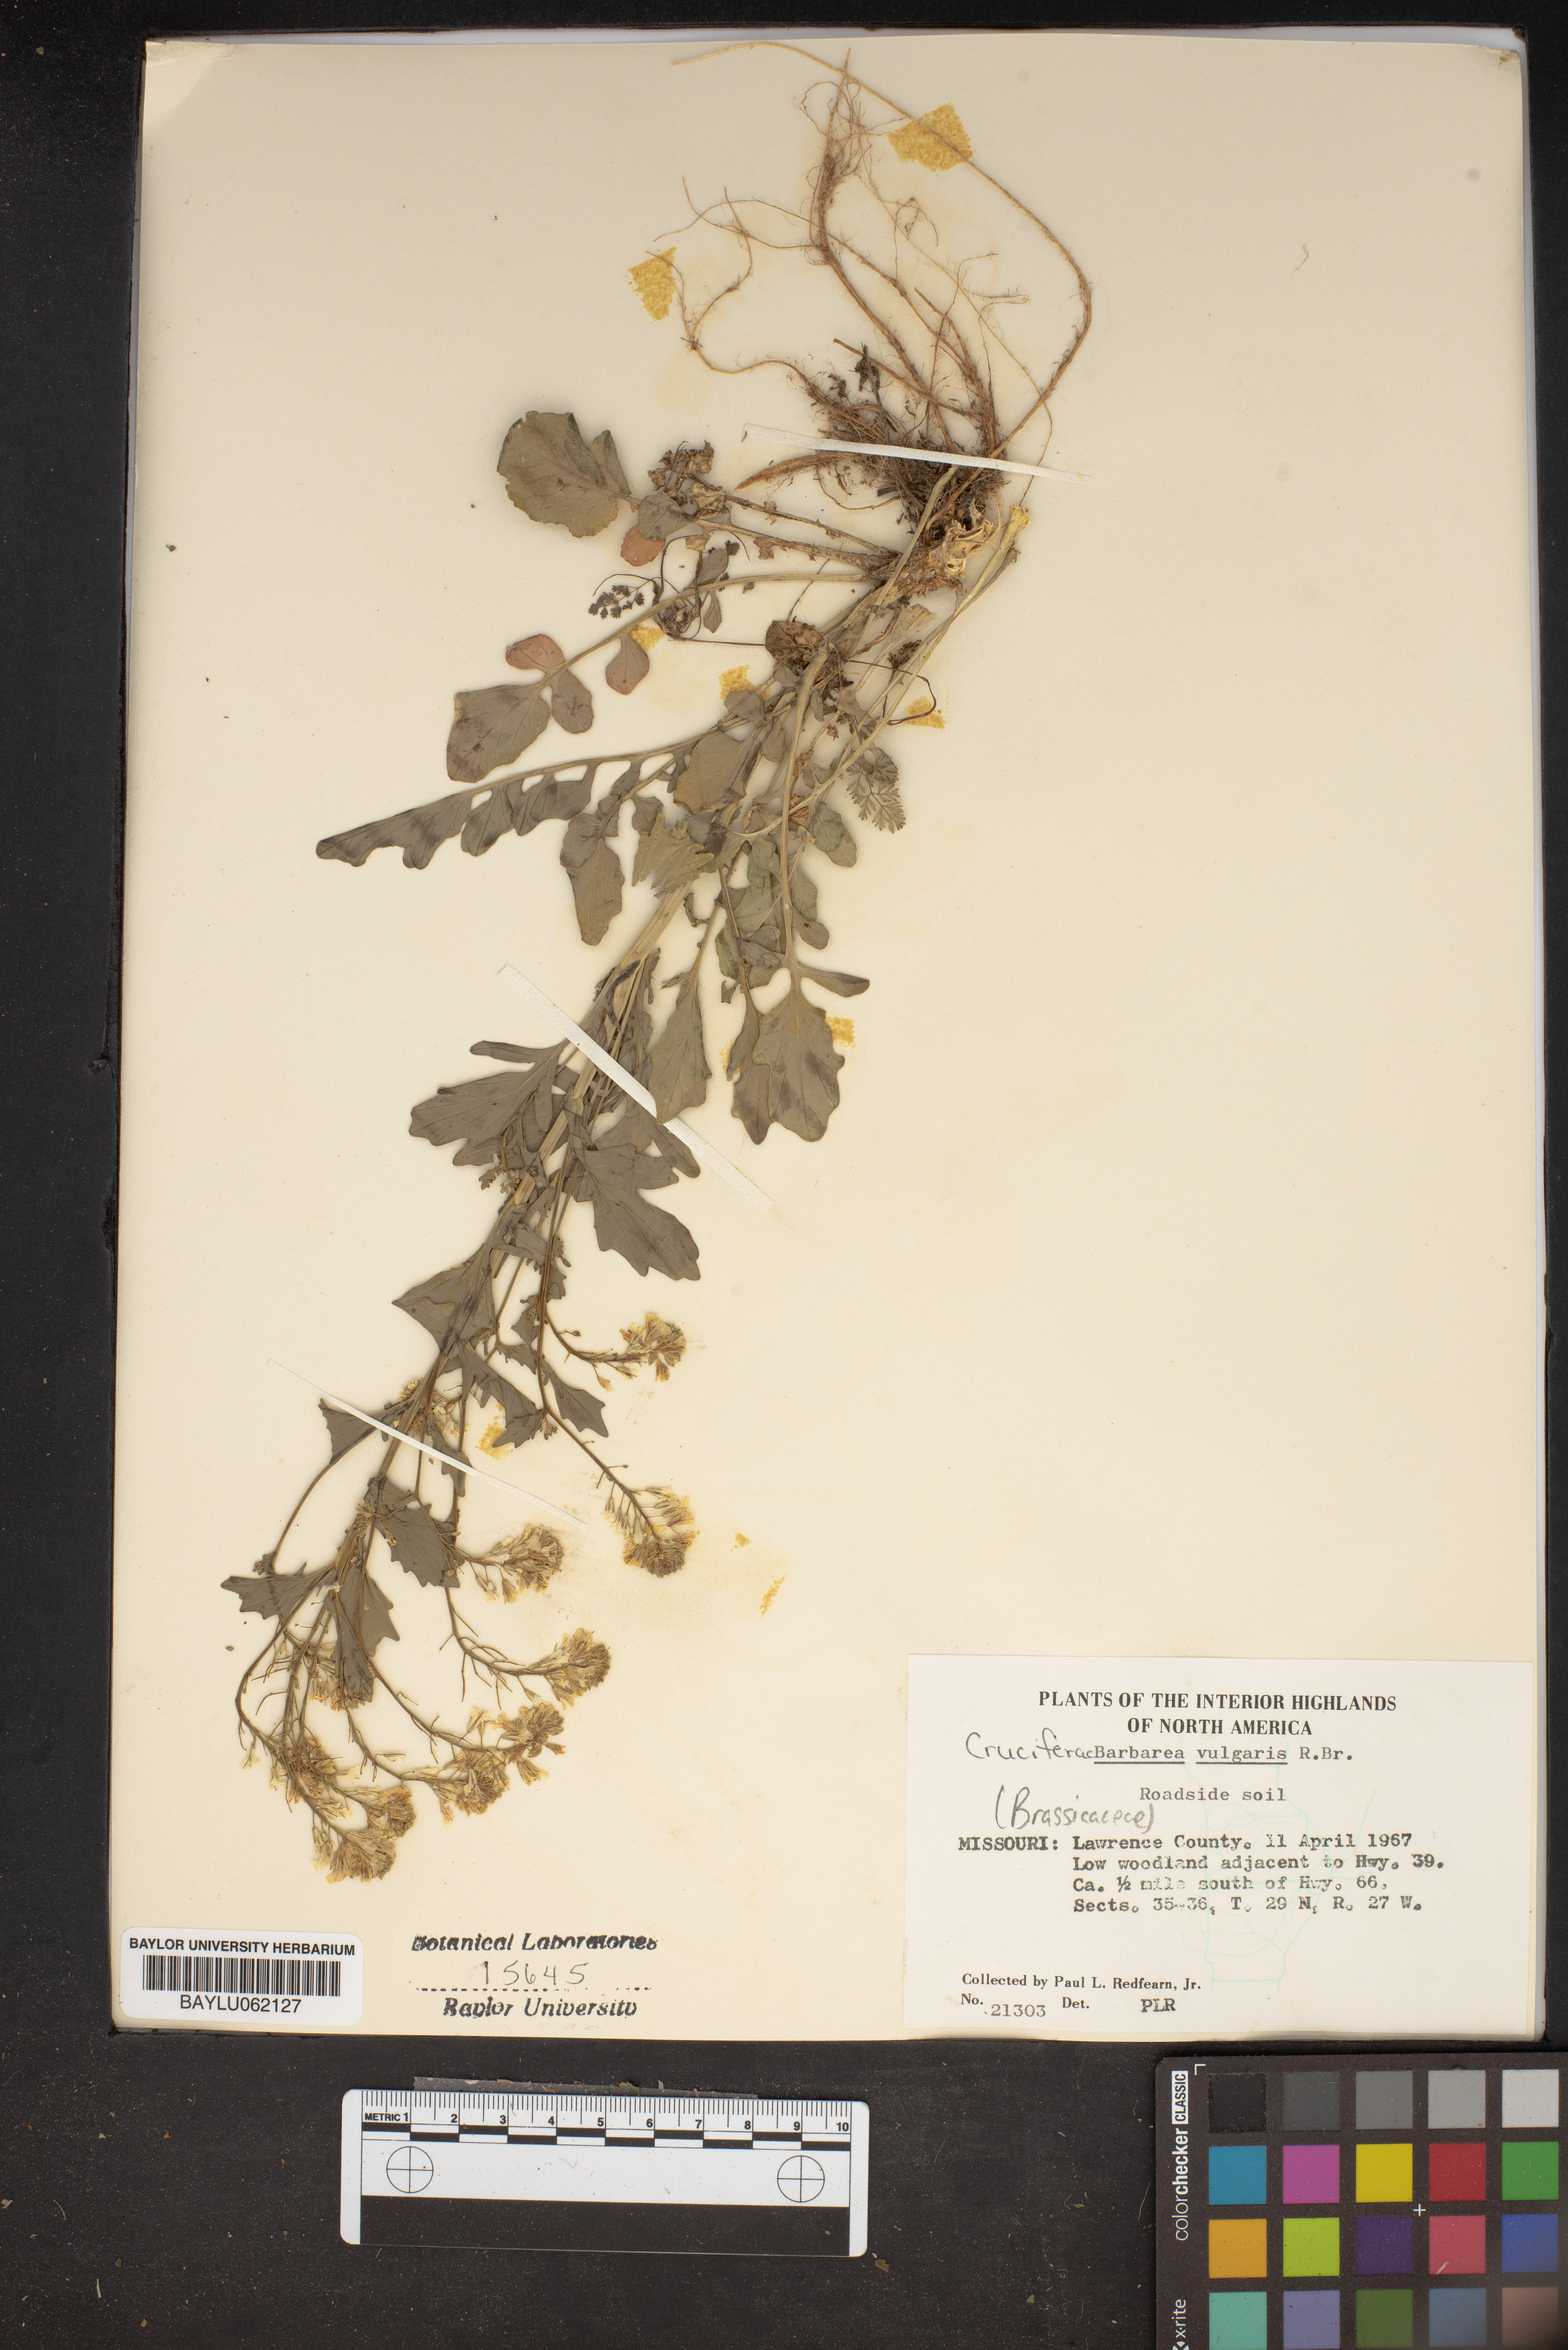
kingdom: Plantae
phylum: Tracheophyta
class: Magnoliopsida
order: Brassicales
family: Brassicaceae
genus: Barbarea
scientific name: Barbarea vulgaris
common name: Cressy-greens
